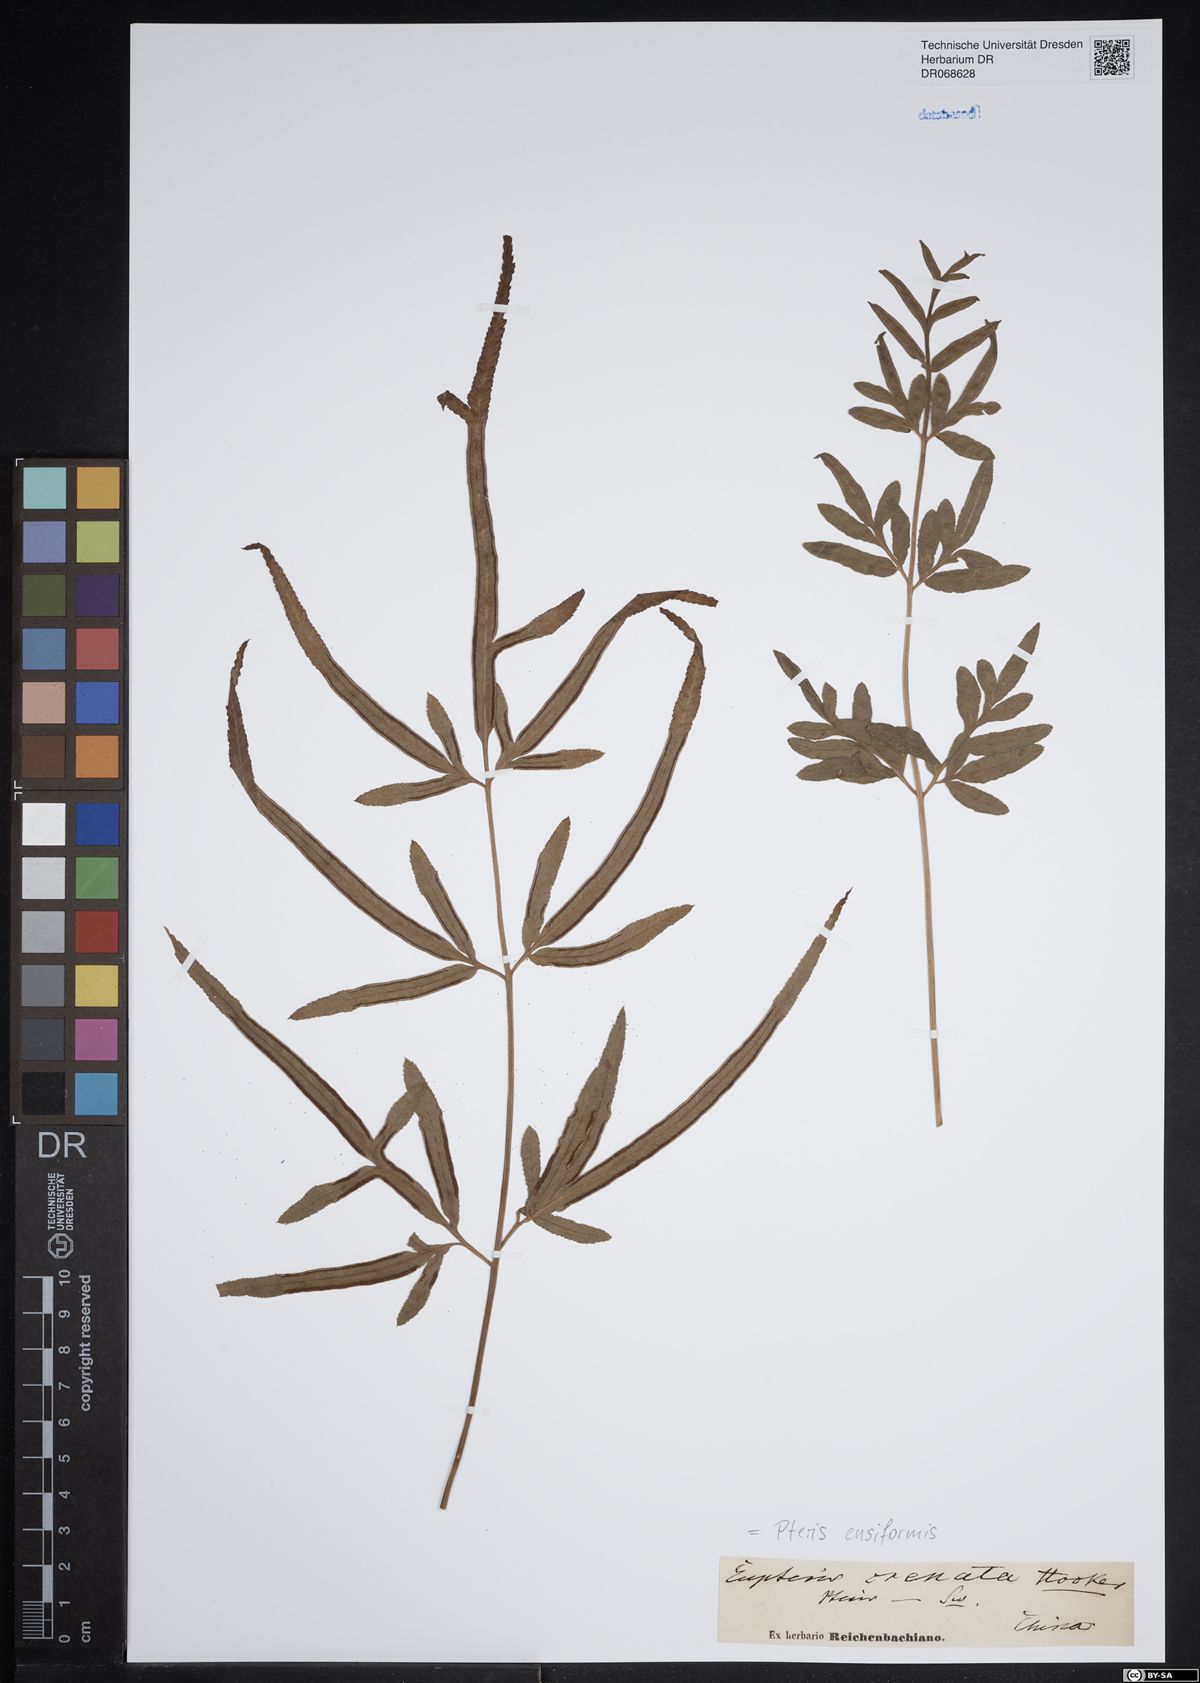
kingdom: Plantae
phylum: Tracheophyta
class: Polypodiopsida
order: Polypodiales
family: Pteridaceae
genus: Pteris
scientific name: Pteris ensiformis
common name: Sword brake
